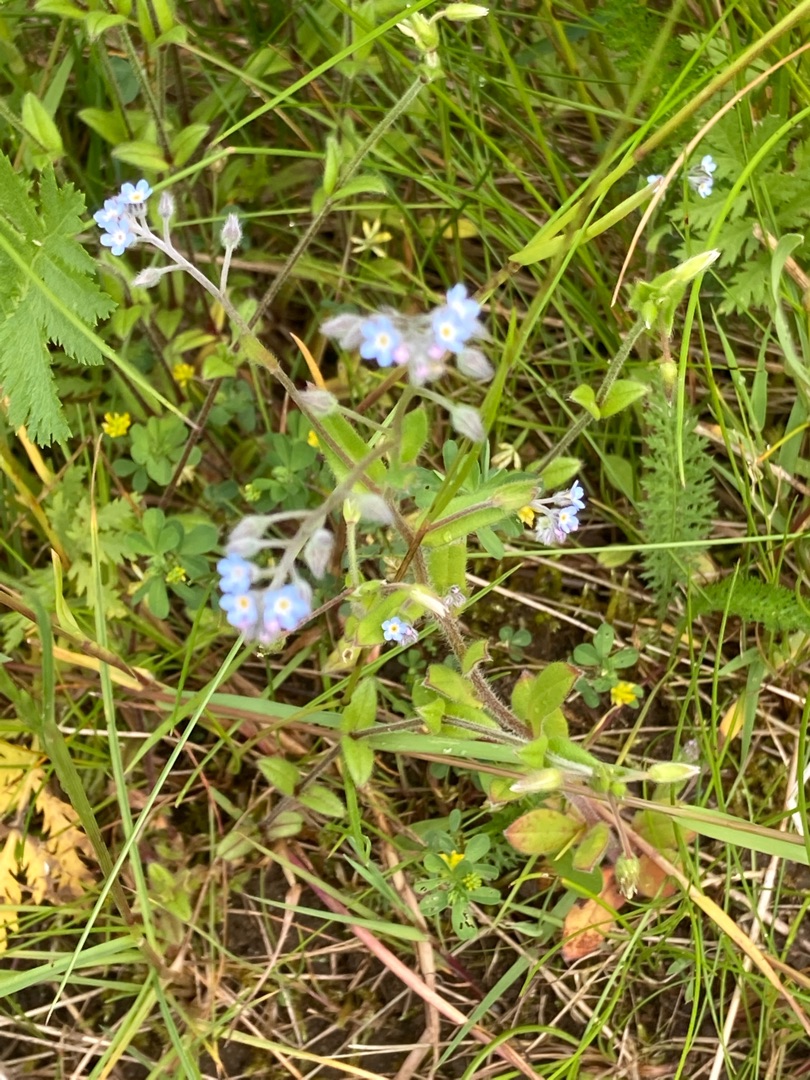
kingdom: Plantae
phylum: Tracheophyta
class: Magnoliopsida
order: Boraginales
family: Boraginaceae
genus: Myosotis
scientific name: Myosotis arvensis
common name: Mark-forglemmigej
